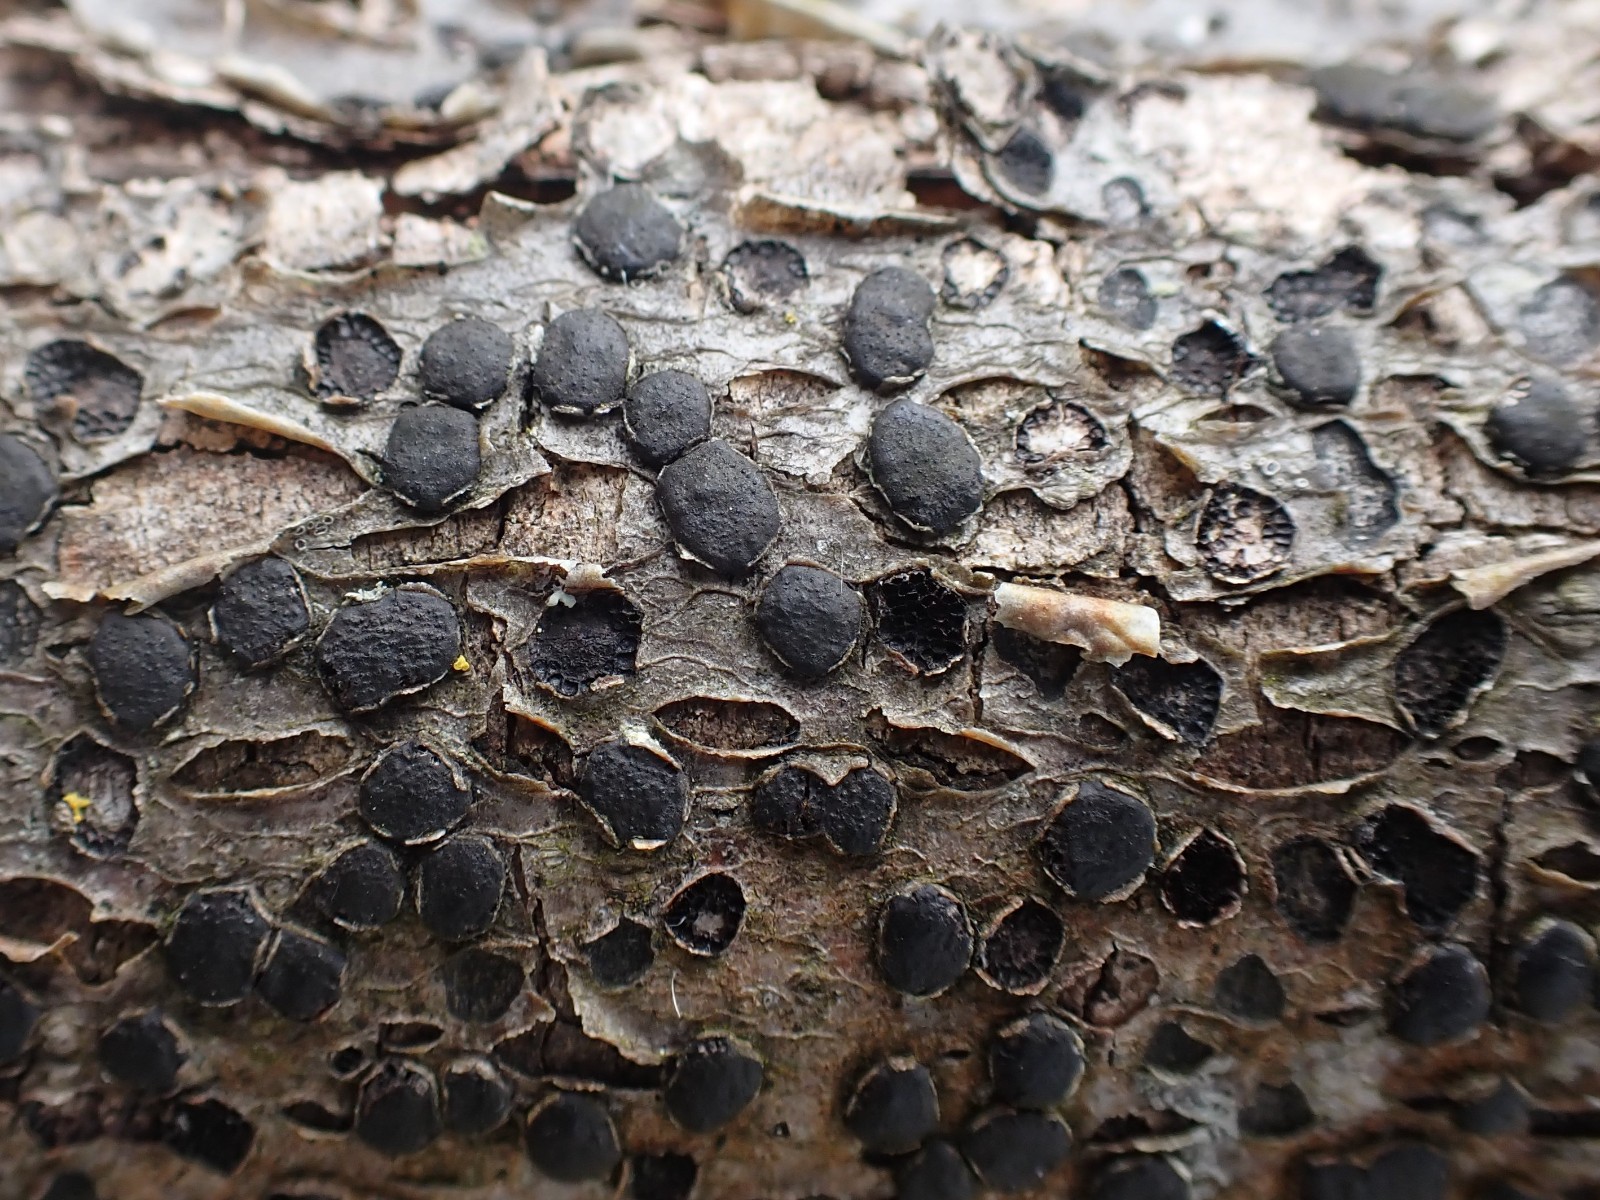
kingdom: Fungi
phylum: Ascomycota
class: Sordariomycetes
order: Xylariales
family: Diatrypaceae
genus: Diatrype
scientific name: Diatrype disciformis
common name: kant-kulskorpe
